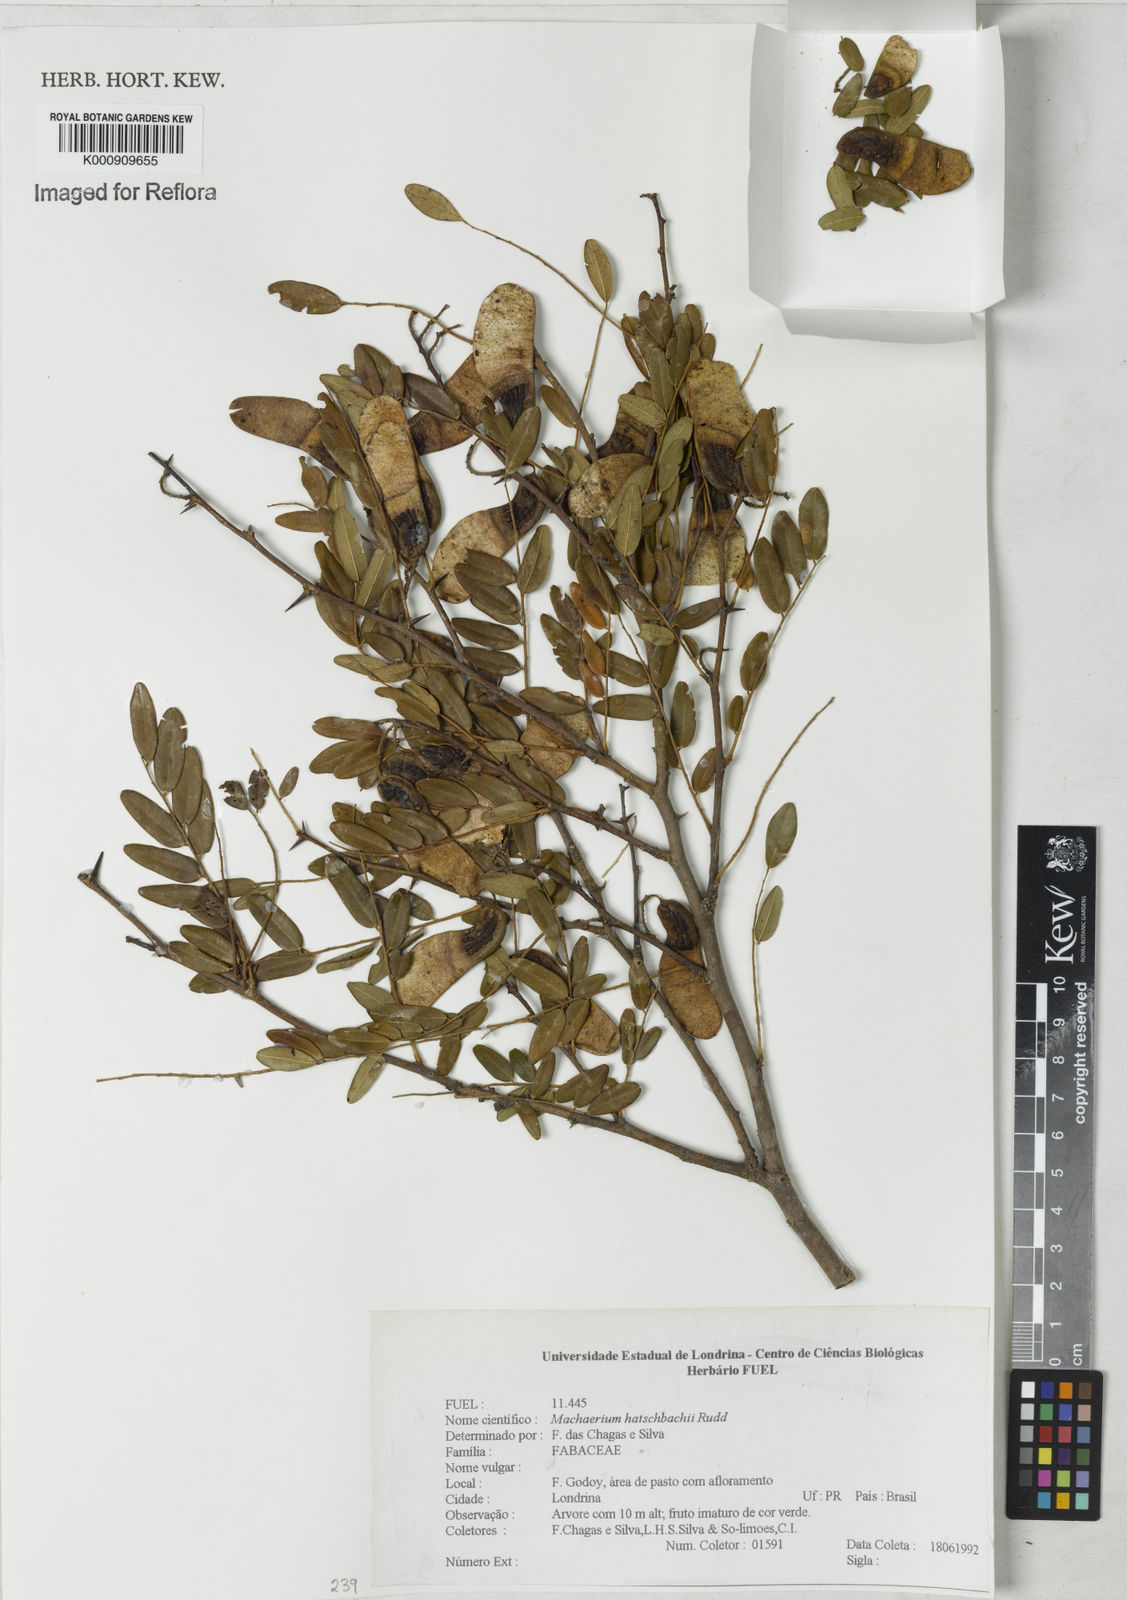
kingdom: Plantae
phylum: Tracheophyta
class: Magnoliopsida
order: Fabales
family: Fabaceae
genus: Machaerium
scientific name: Machaerium hatschbachii
